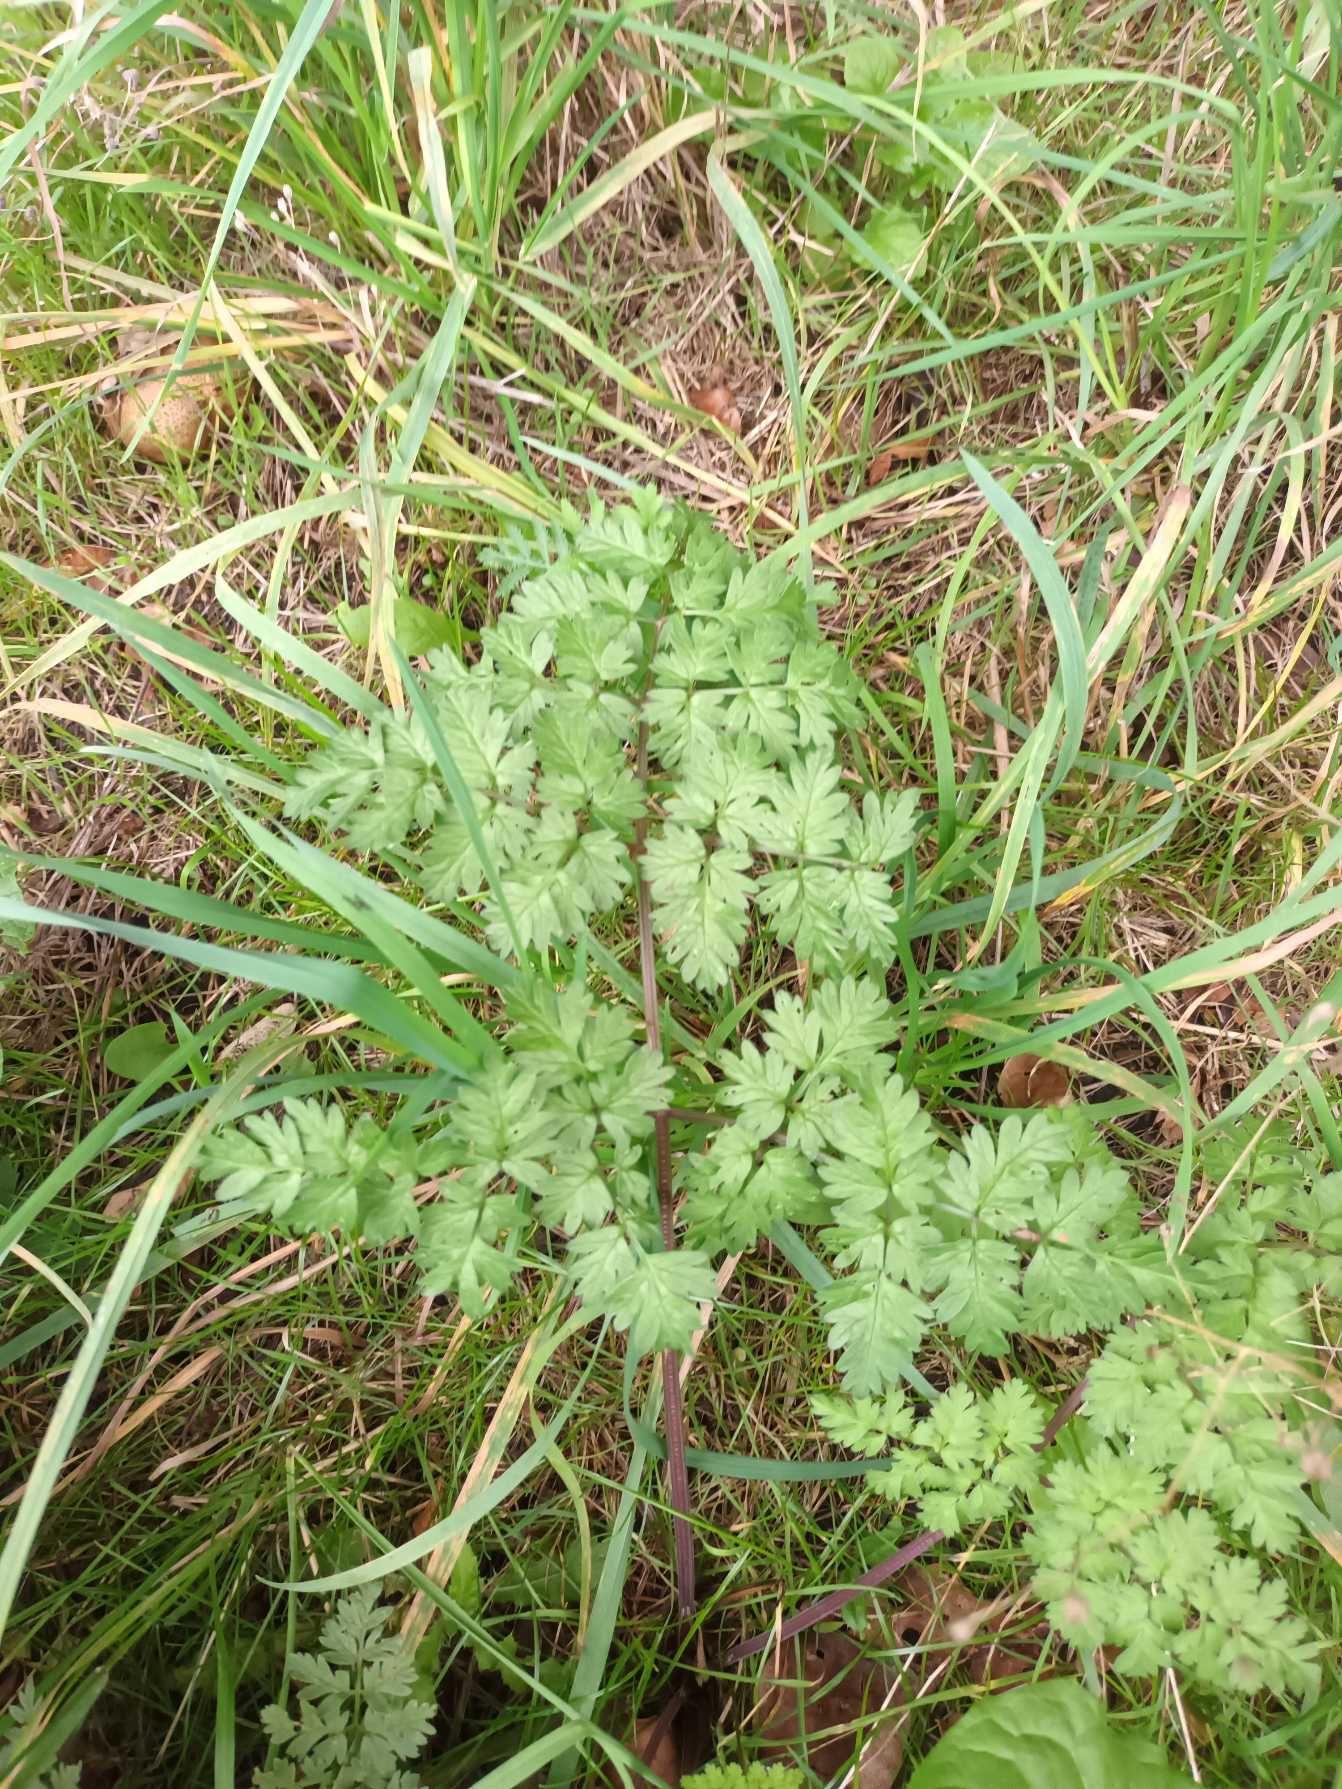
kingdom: Plantae
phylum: Tracheophyta
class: Magnoliopsida
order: Apiales
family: Apiaceae
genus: Anthriscus
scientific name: Anthriscus sylvestris
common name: Vild kørvel
